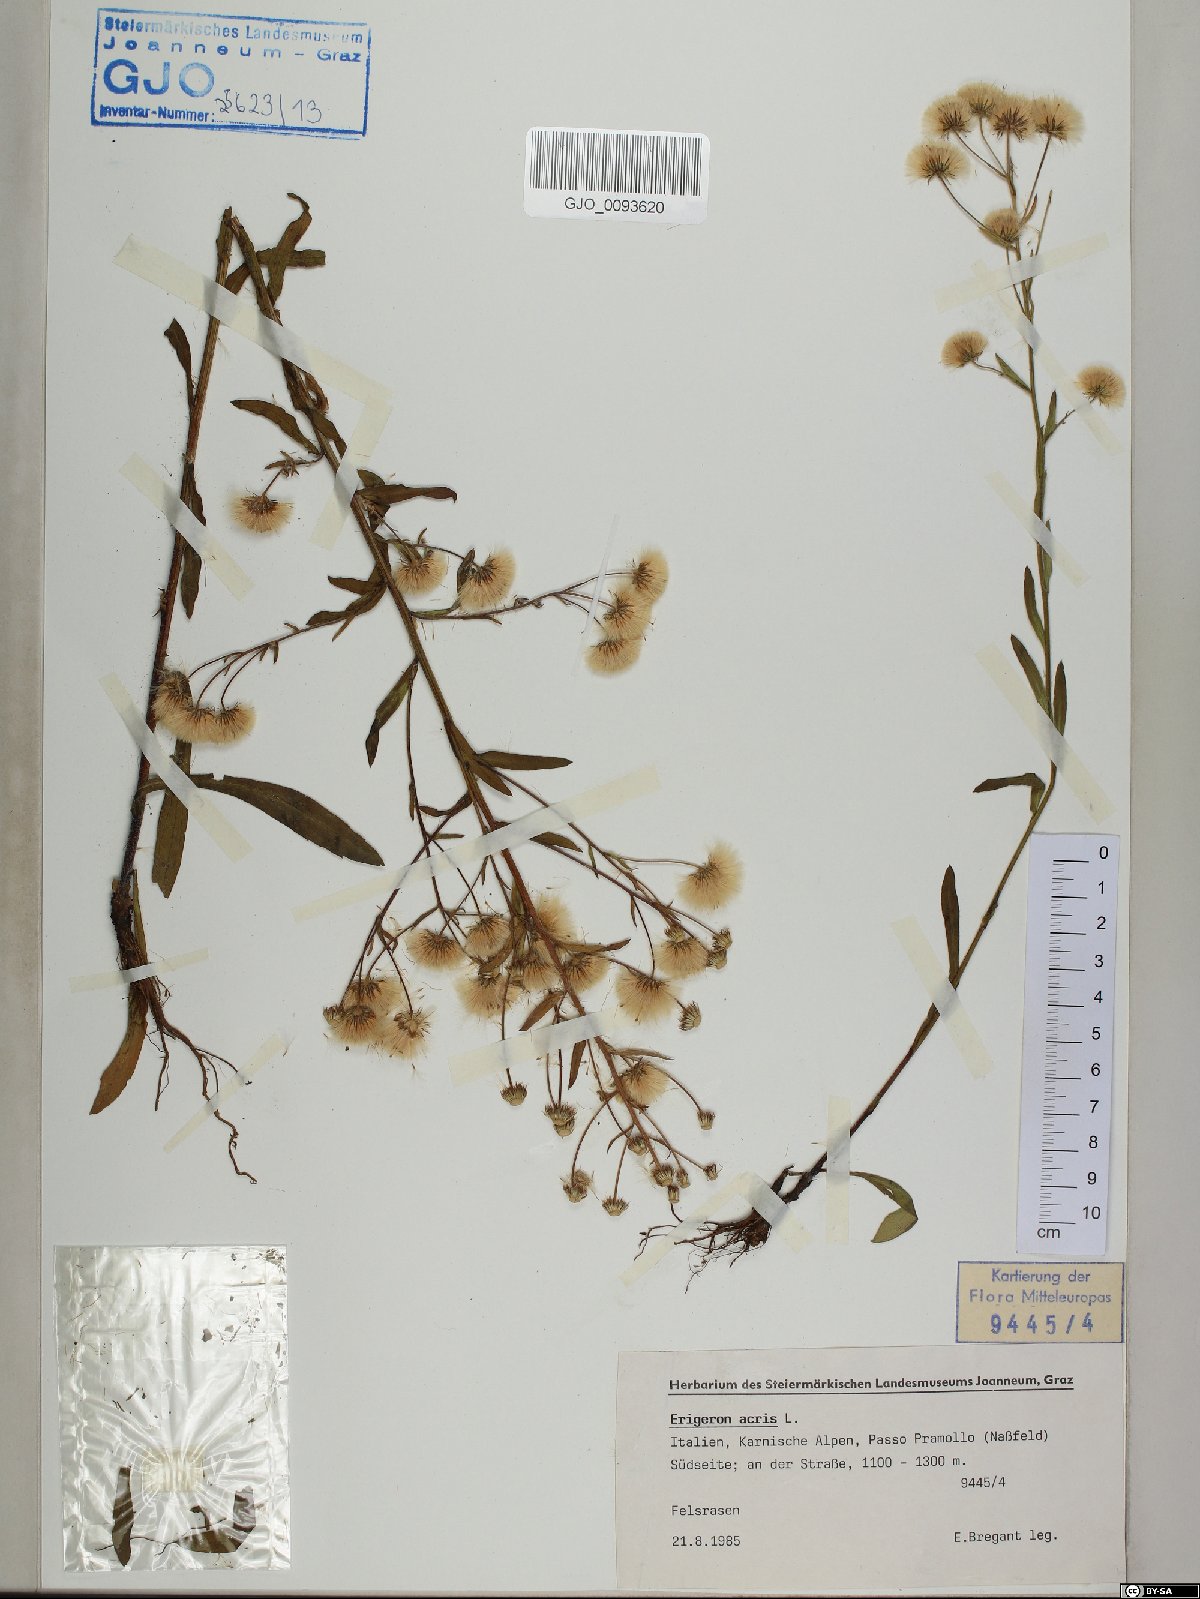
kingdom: Plantae
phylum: Tracheophyta
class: Magnoliopsida
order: Asterales
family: Asteraceae
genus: Erigeron
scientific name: Erigeron acris
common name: Blue fleabane
